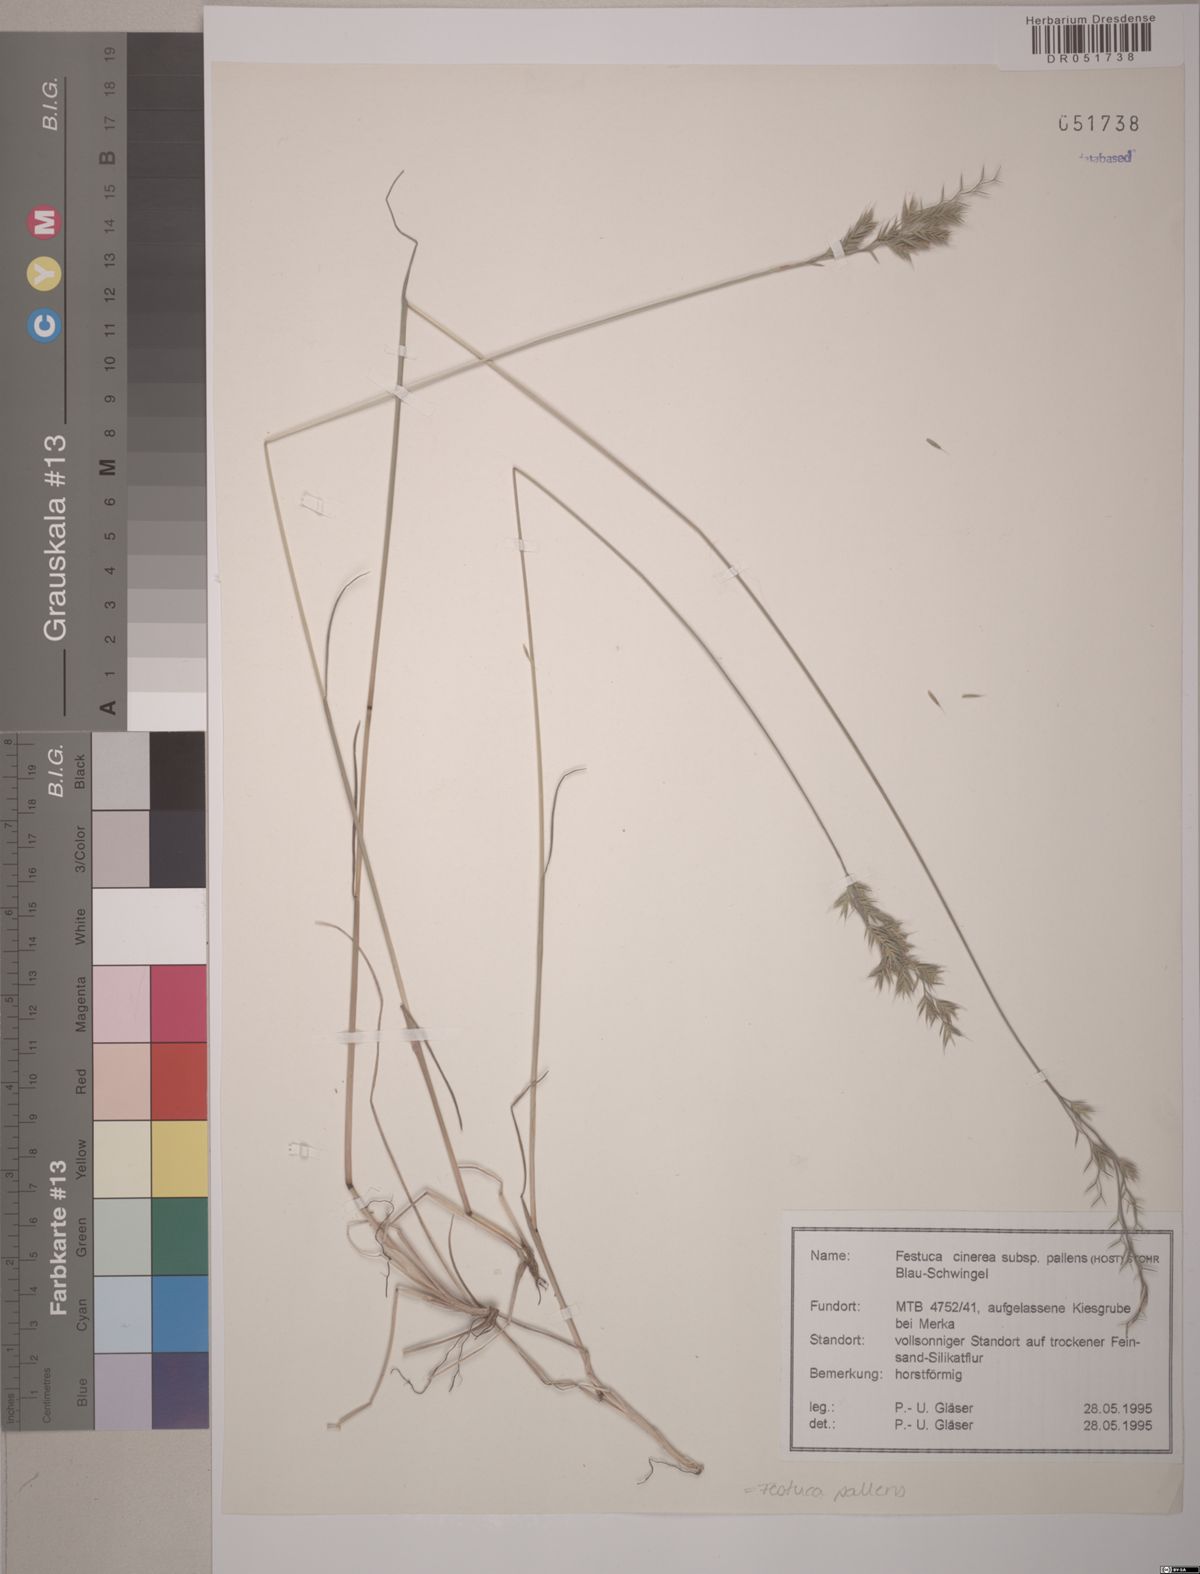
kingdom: Plantae
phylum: Tracheophyta
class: Liliopsida
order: Poales
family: Poaceae
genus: Festuca
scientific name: Festuca pallens
